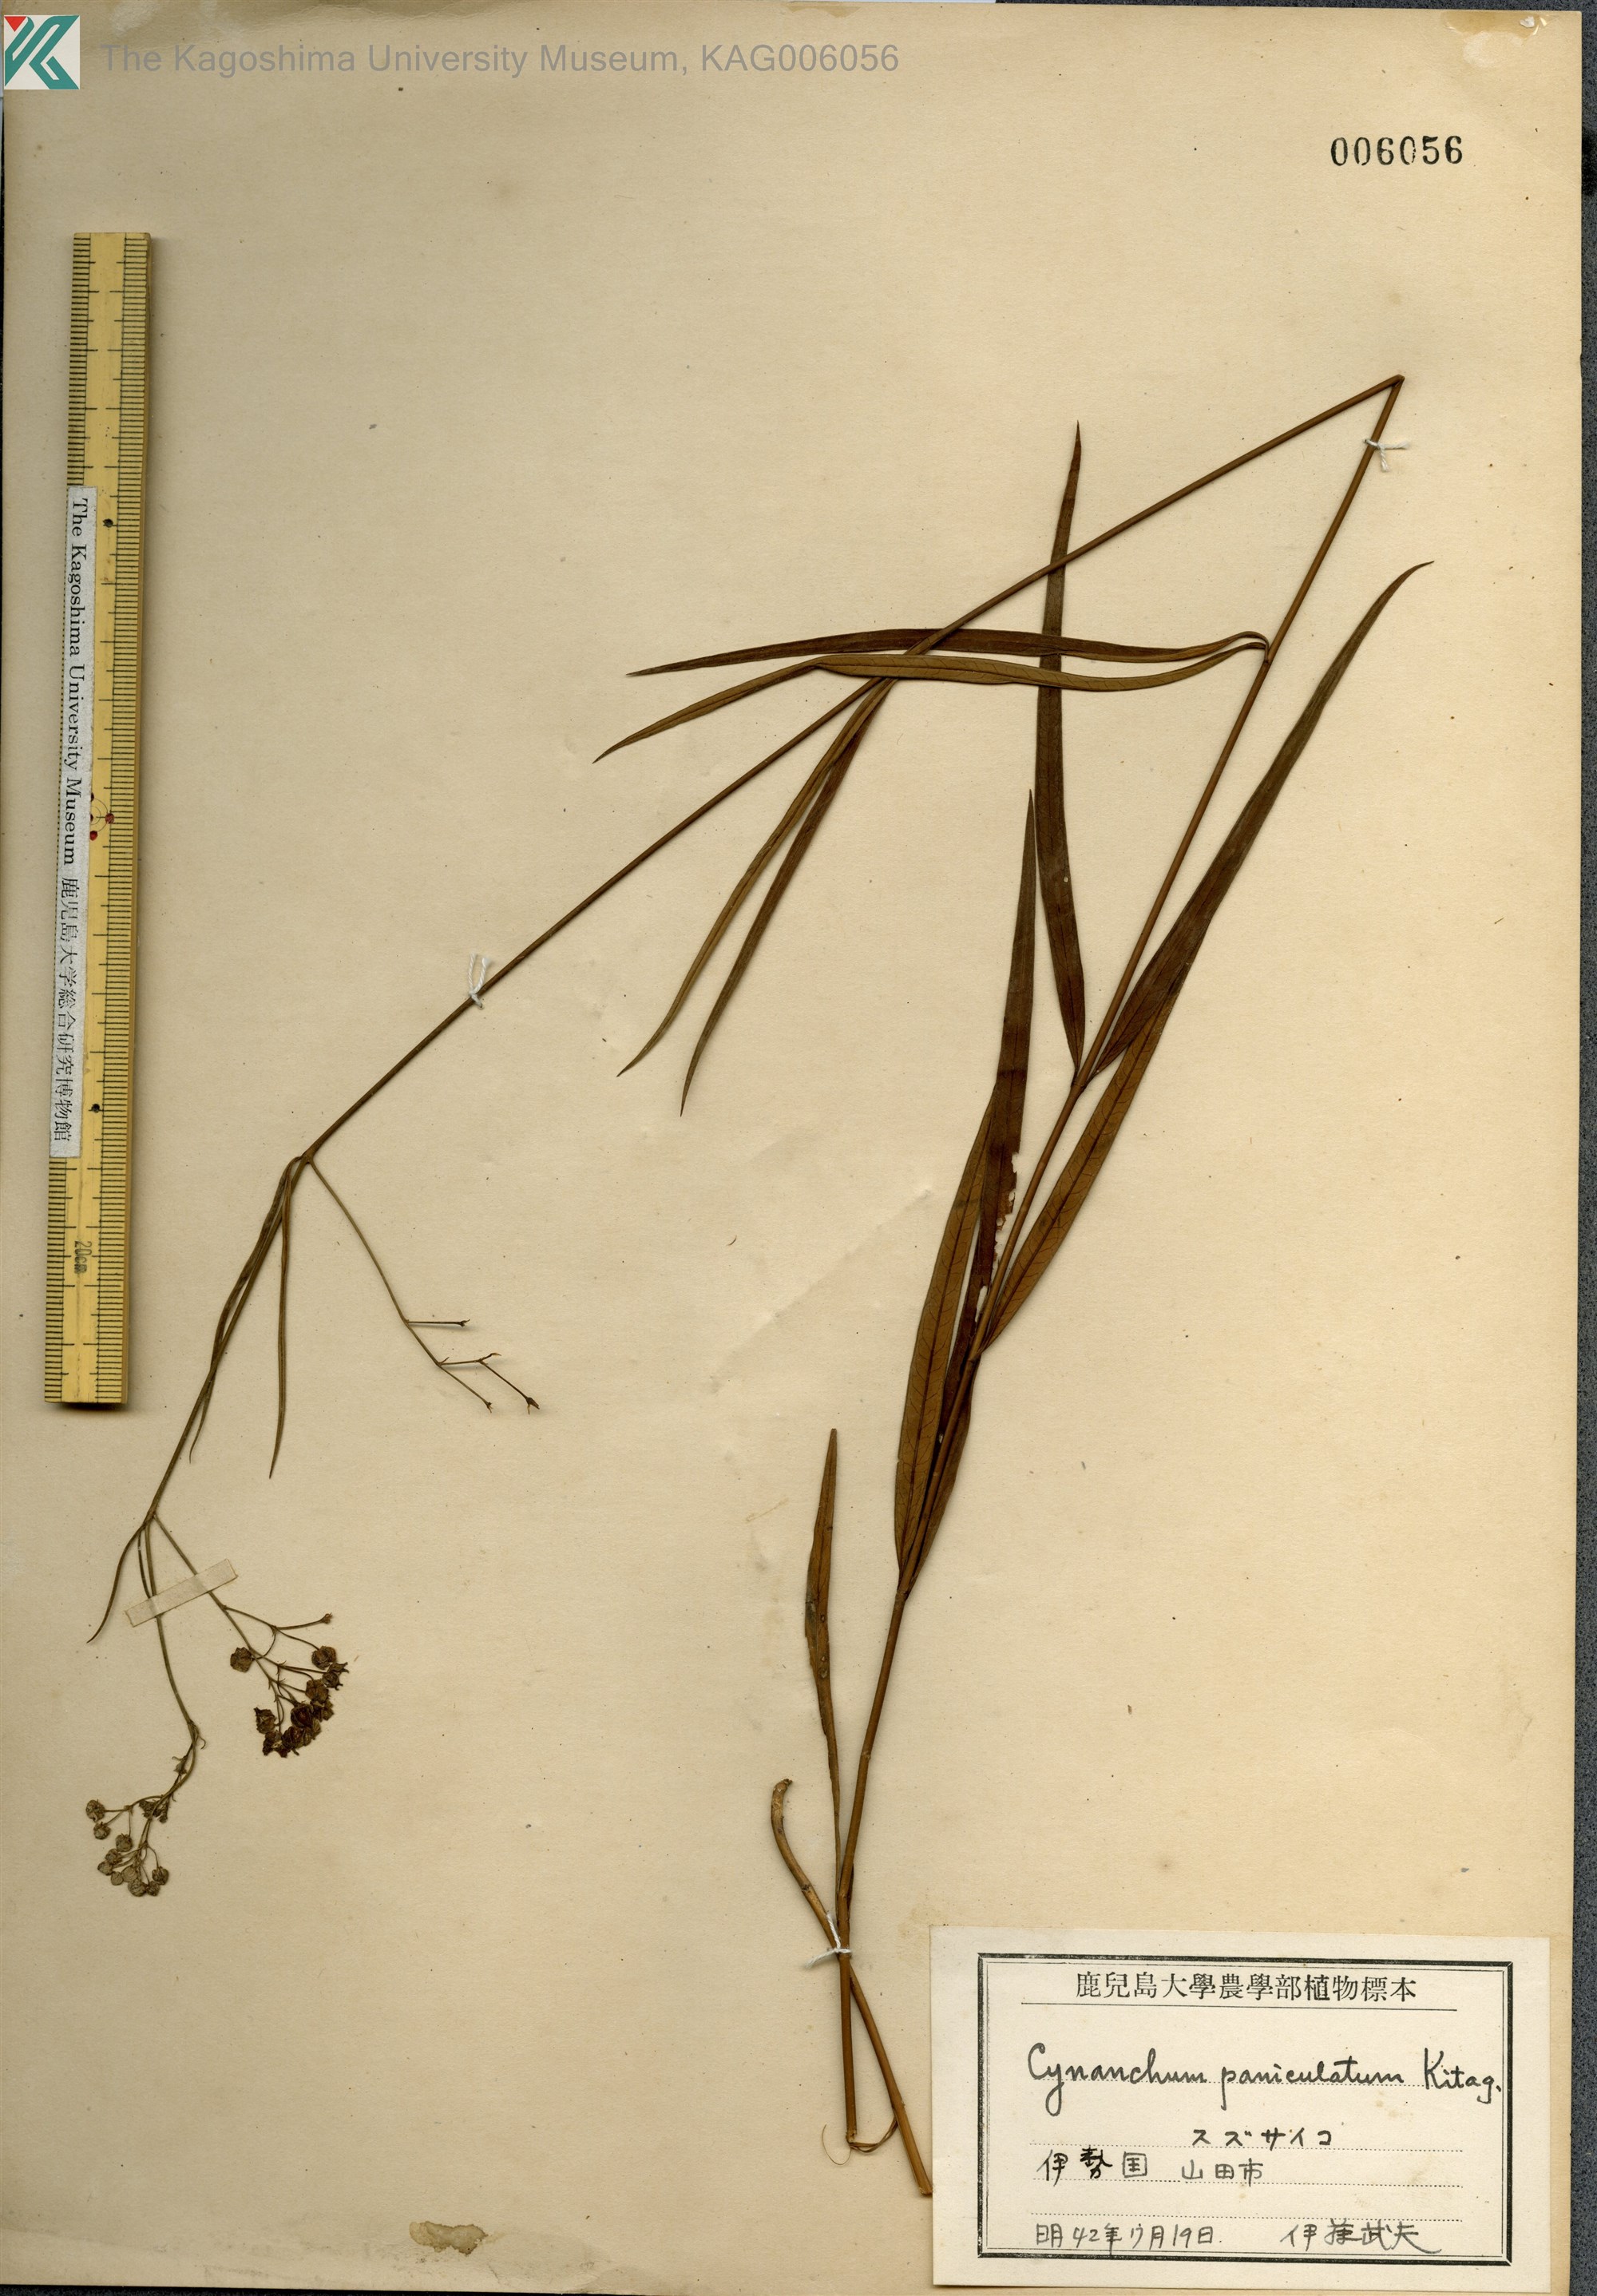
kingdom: Plantae
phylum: Tracheophyta
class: Magnoliopsida
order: Gentianales
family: Apocynaceae
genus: Vincetoxicum
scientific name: Vincetoxicum mukdenense
